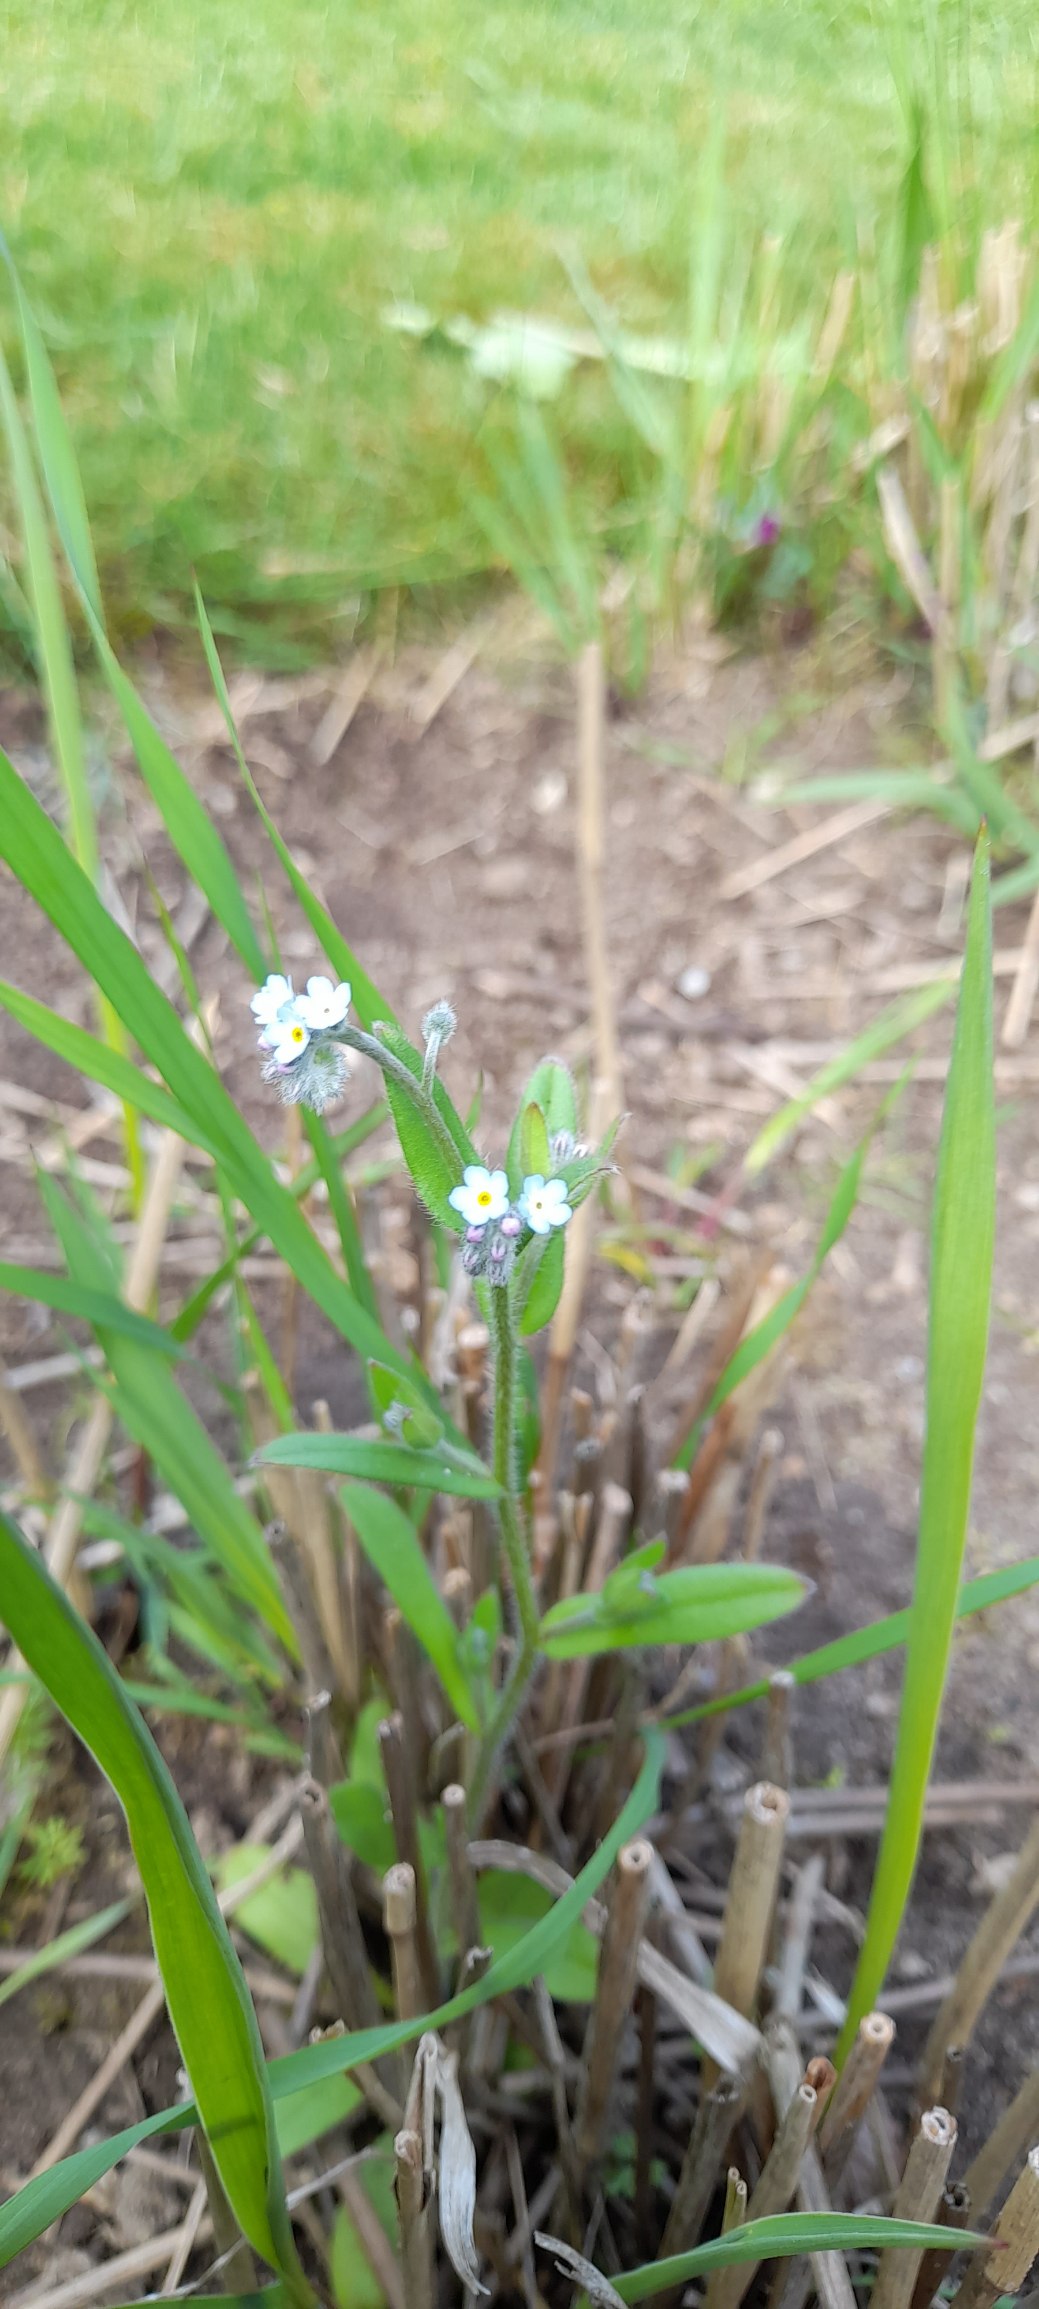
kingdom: Plantae
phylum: Tracheophyta
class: Magnoliopsida
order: Boraginales
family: Boraginaceae
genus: Myosotis
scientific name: Myosotis arvensis
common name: Mark-forglemmigej
